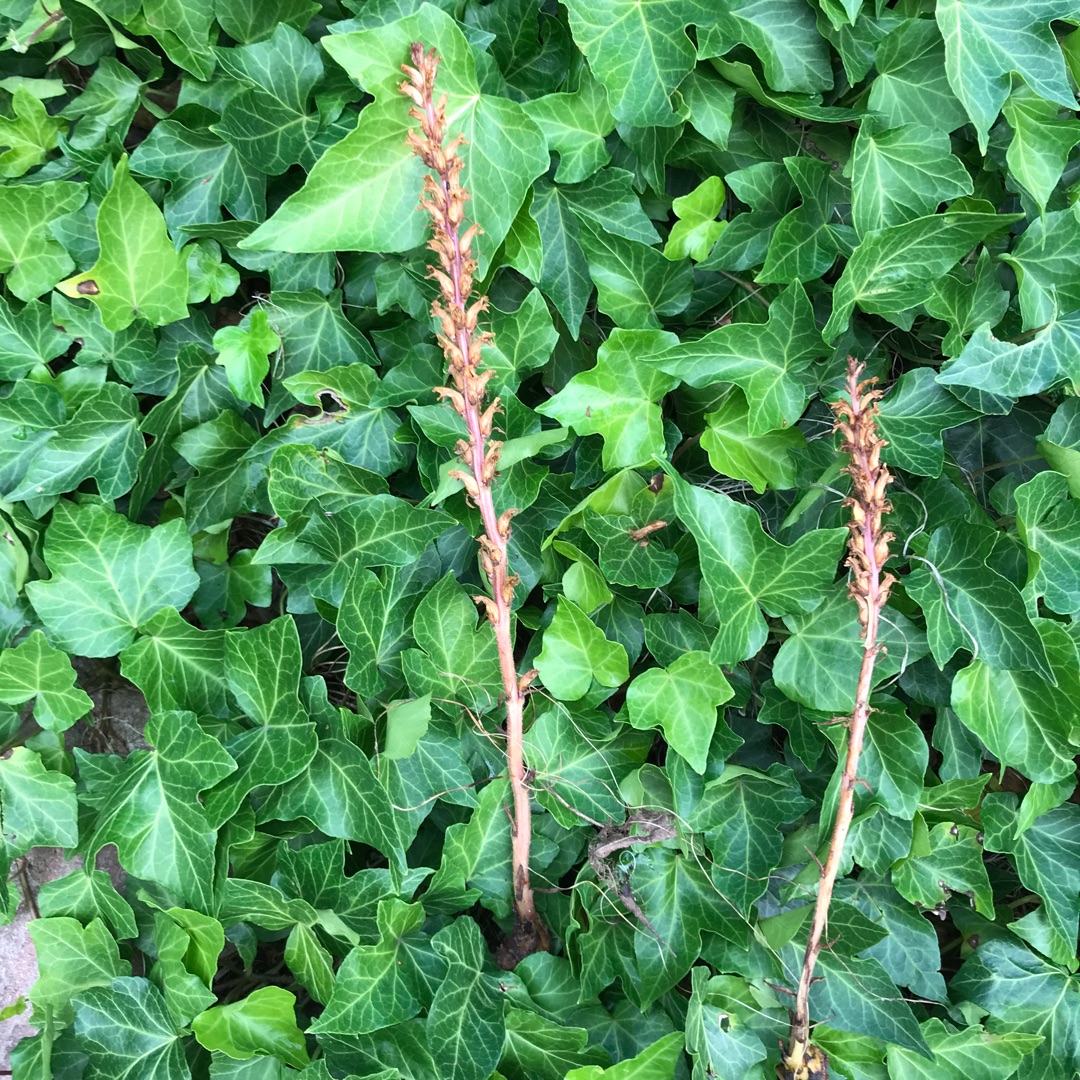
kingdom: Plantae
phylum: Tracheophyta
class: Magnoliopsida
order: Lamiales
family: Orobanchaceae
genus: Orobanche
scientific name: Orobanche hederae
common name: Vedbend-gyvelkvæler
